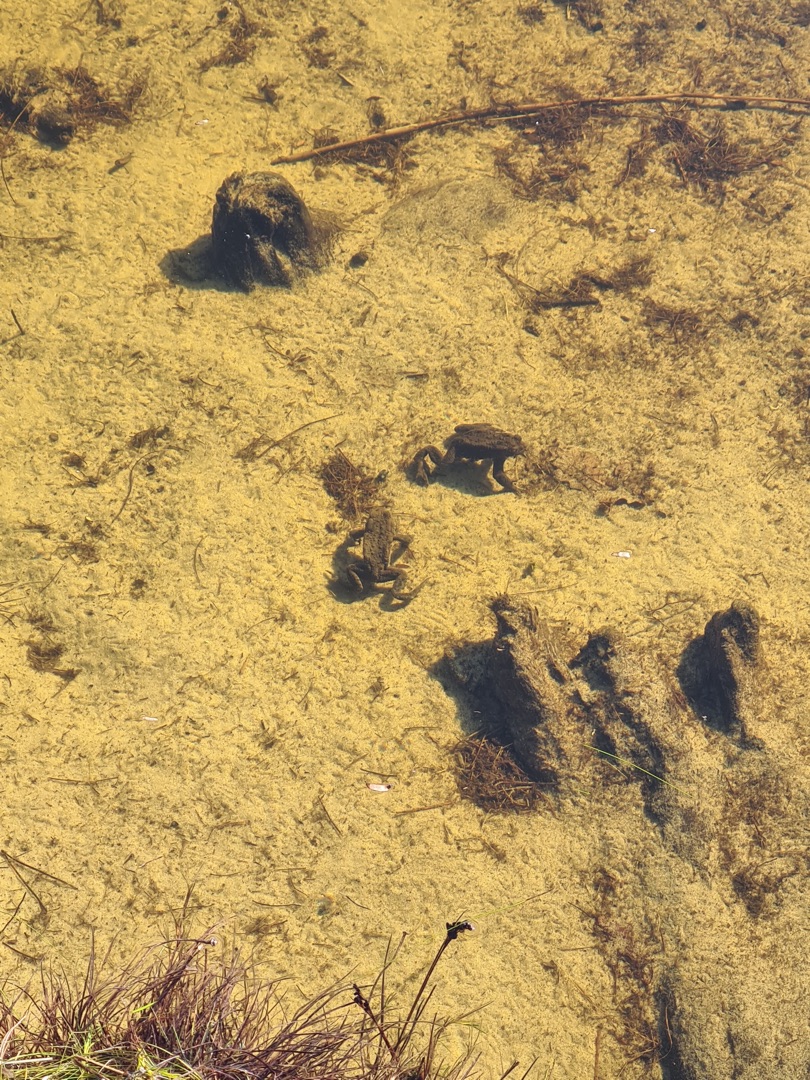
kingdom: Animalia
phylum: Chordata
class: Amphibia
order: Anura
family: Bufonidae
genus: Bufo
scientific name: Bufo bufo
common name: Skrubtudse
